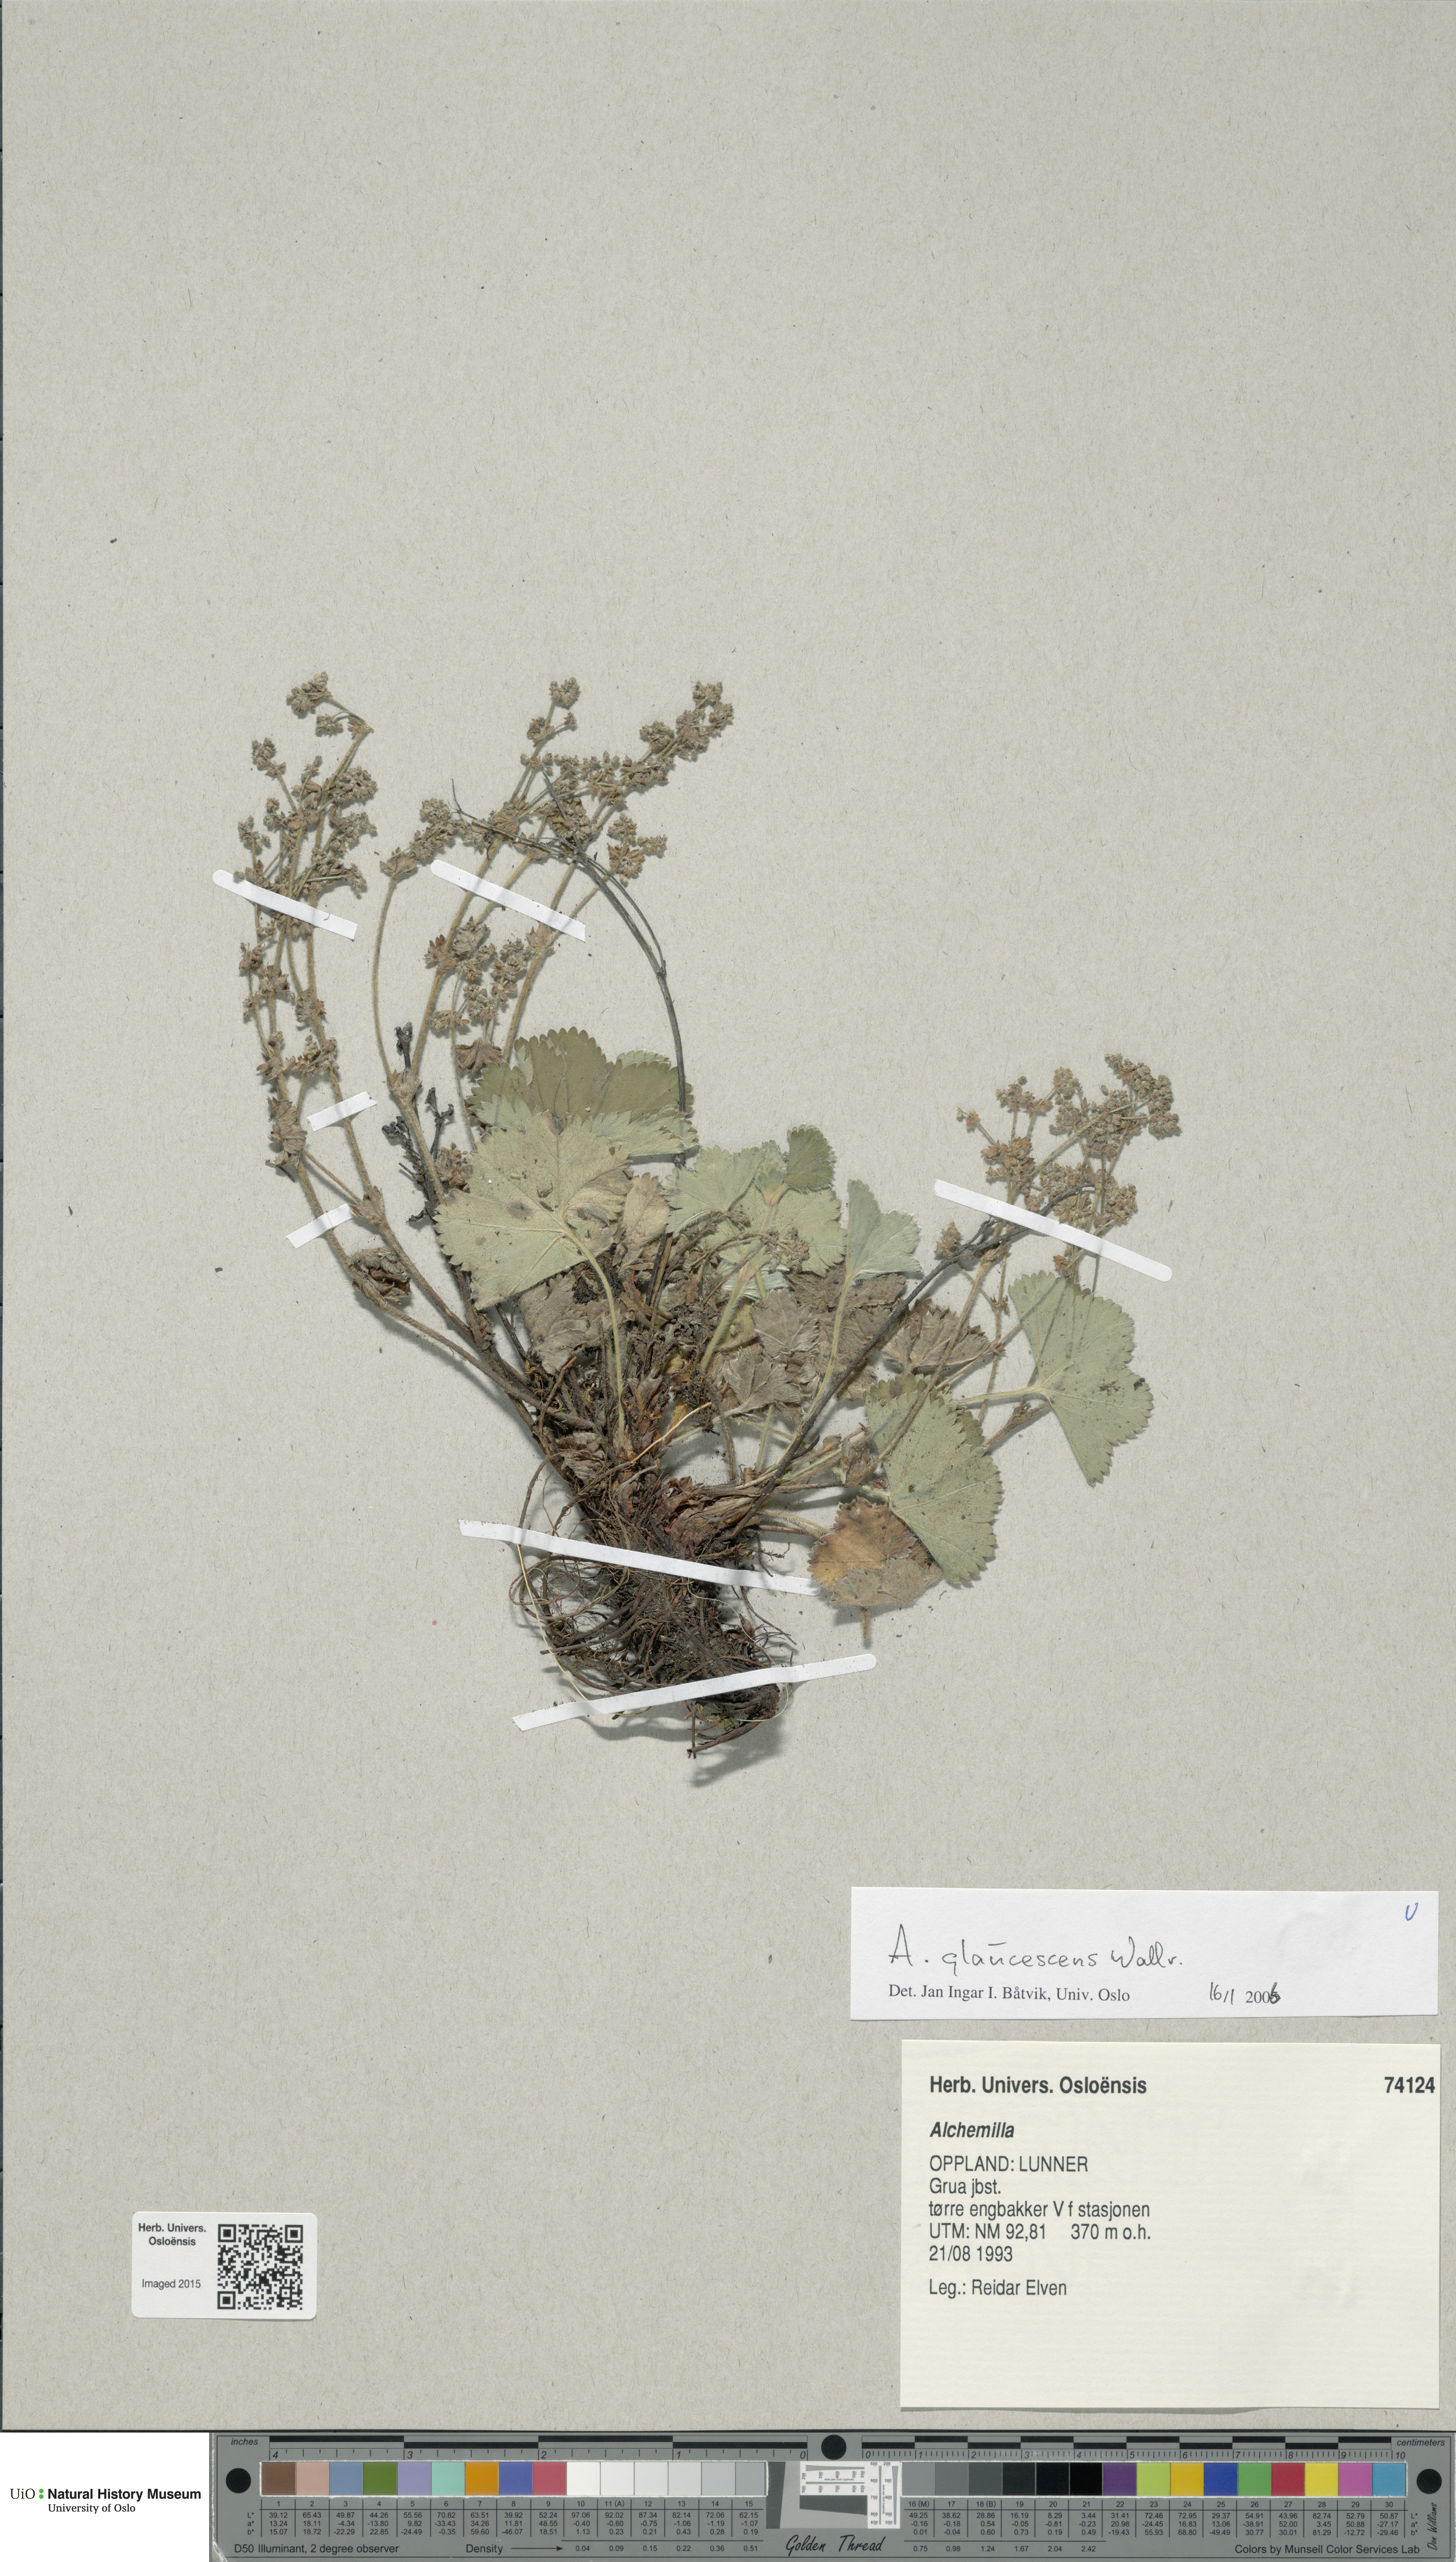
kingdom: Plantae
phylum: Tracheophyta
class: Magnoliopsida
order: Rosales
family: Rosaceae
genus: Alchemilla
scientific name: Alchemilla glaucescens
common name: Silky lady's mantle
